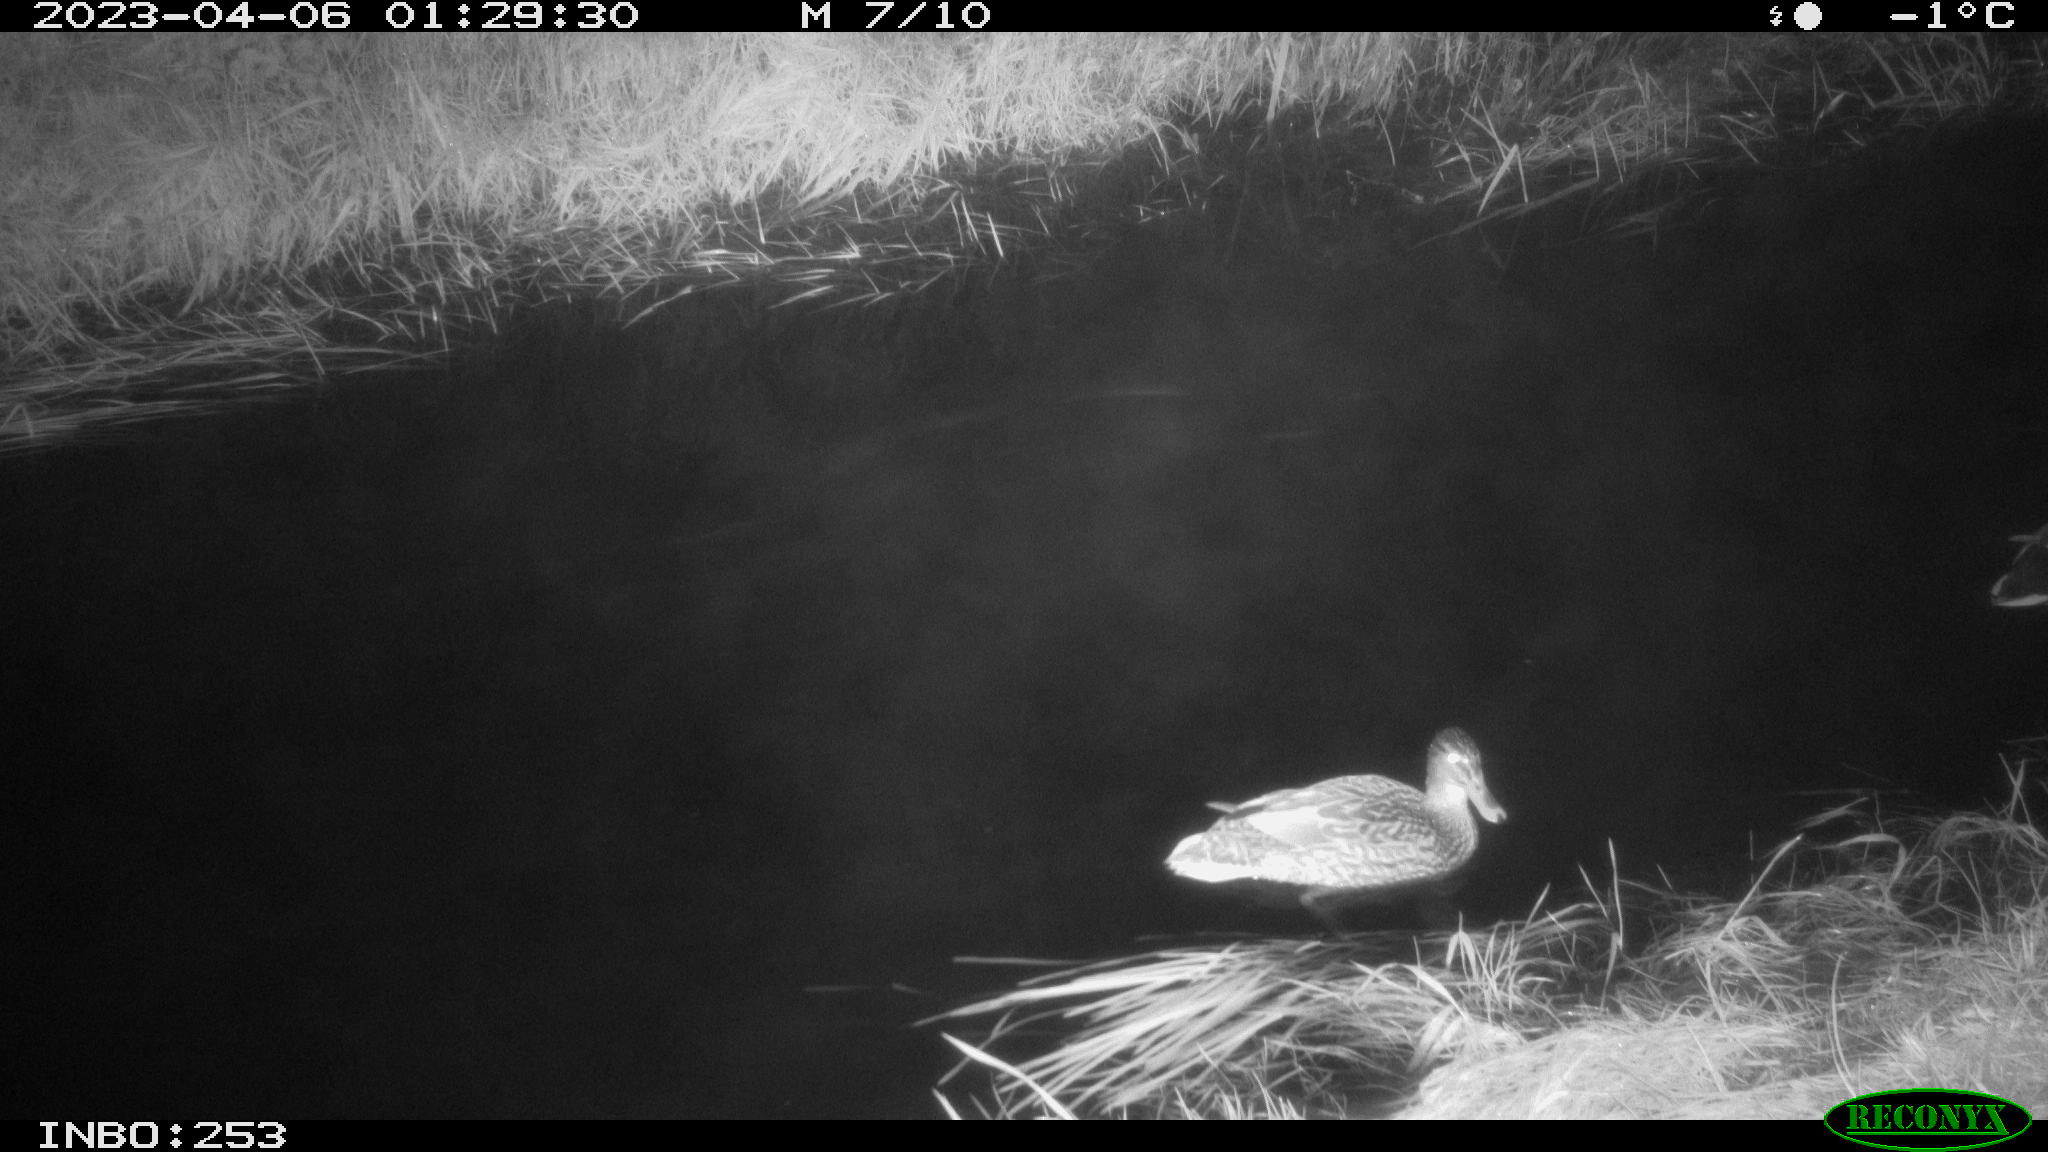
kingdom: Animalia
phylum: Chordata
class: Aves
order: Anseriformes
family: Anatidae
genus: Anas
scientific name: Anas
